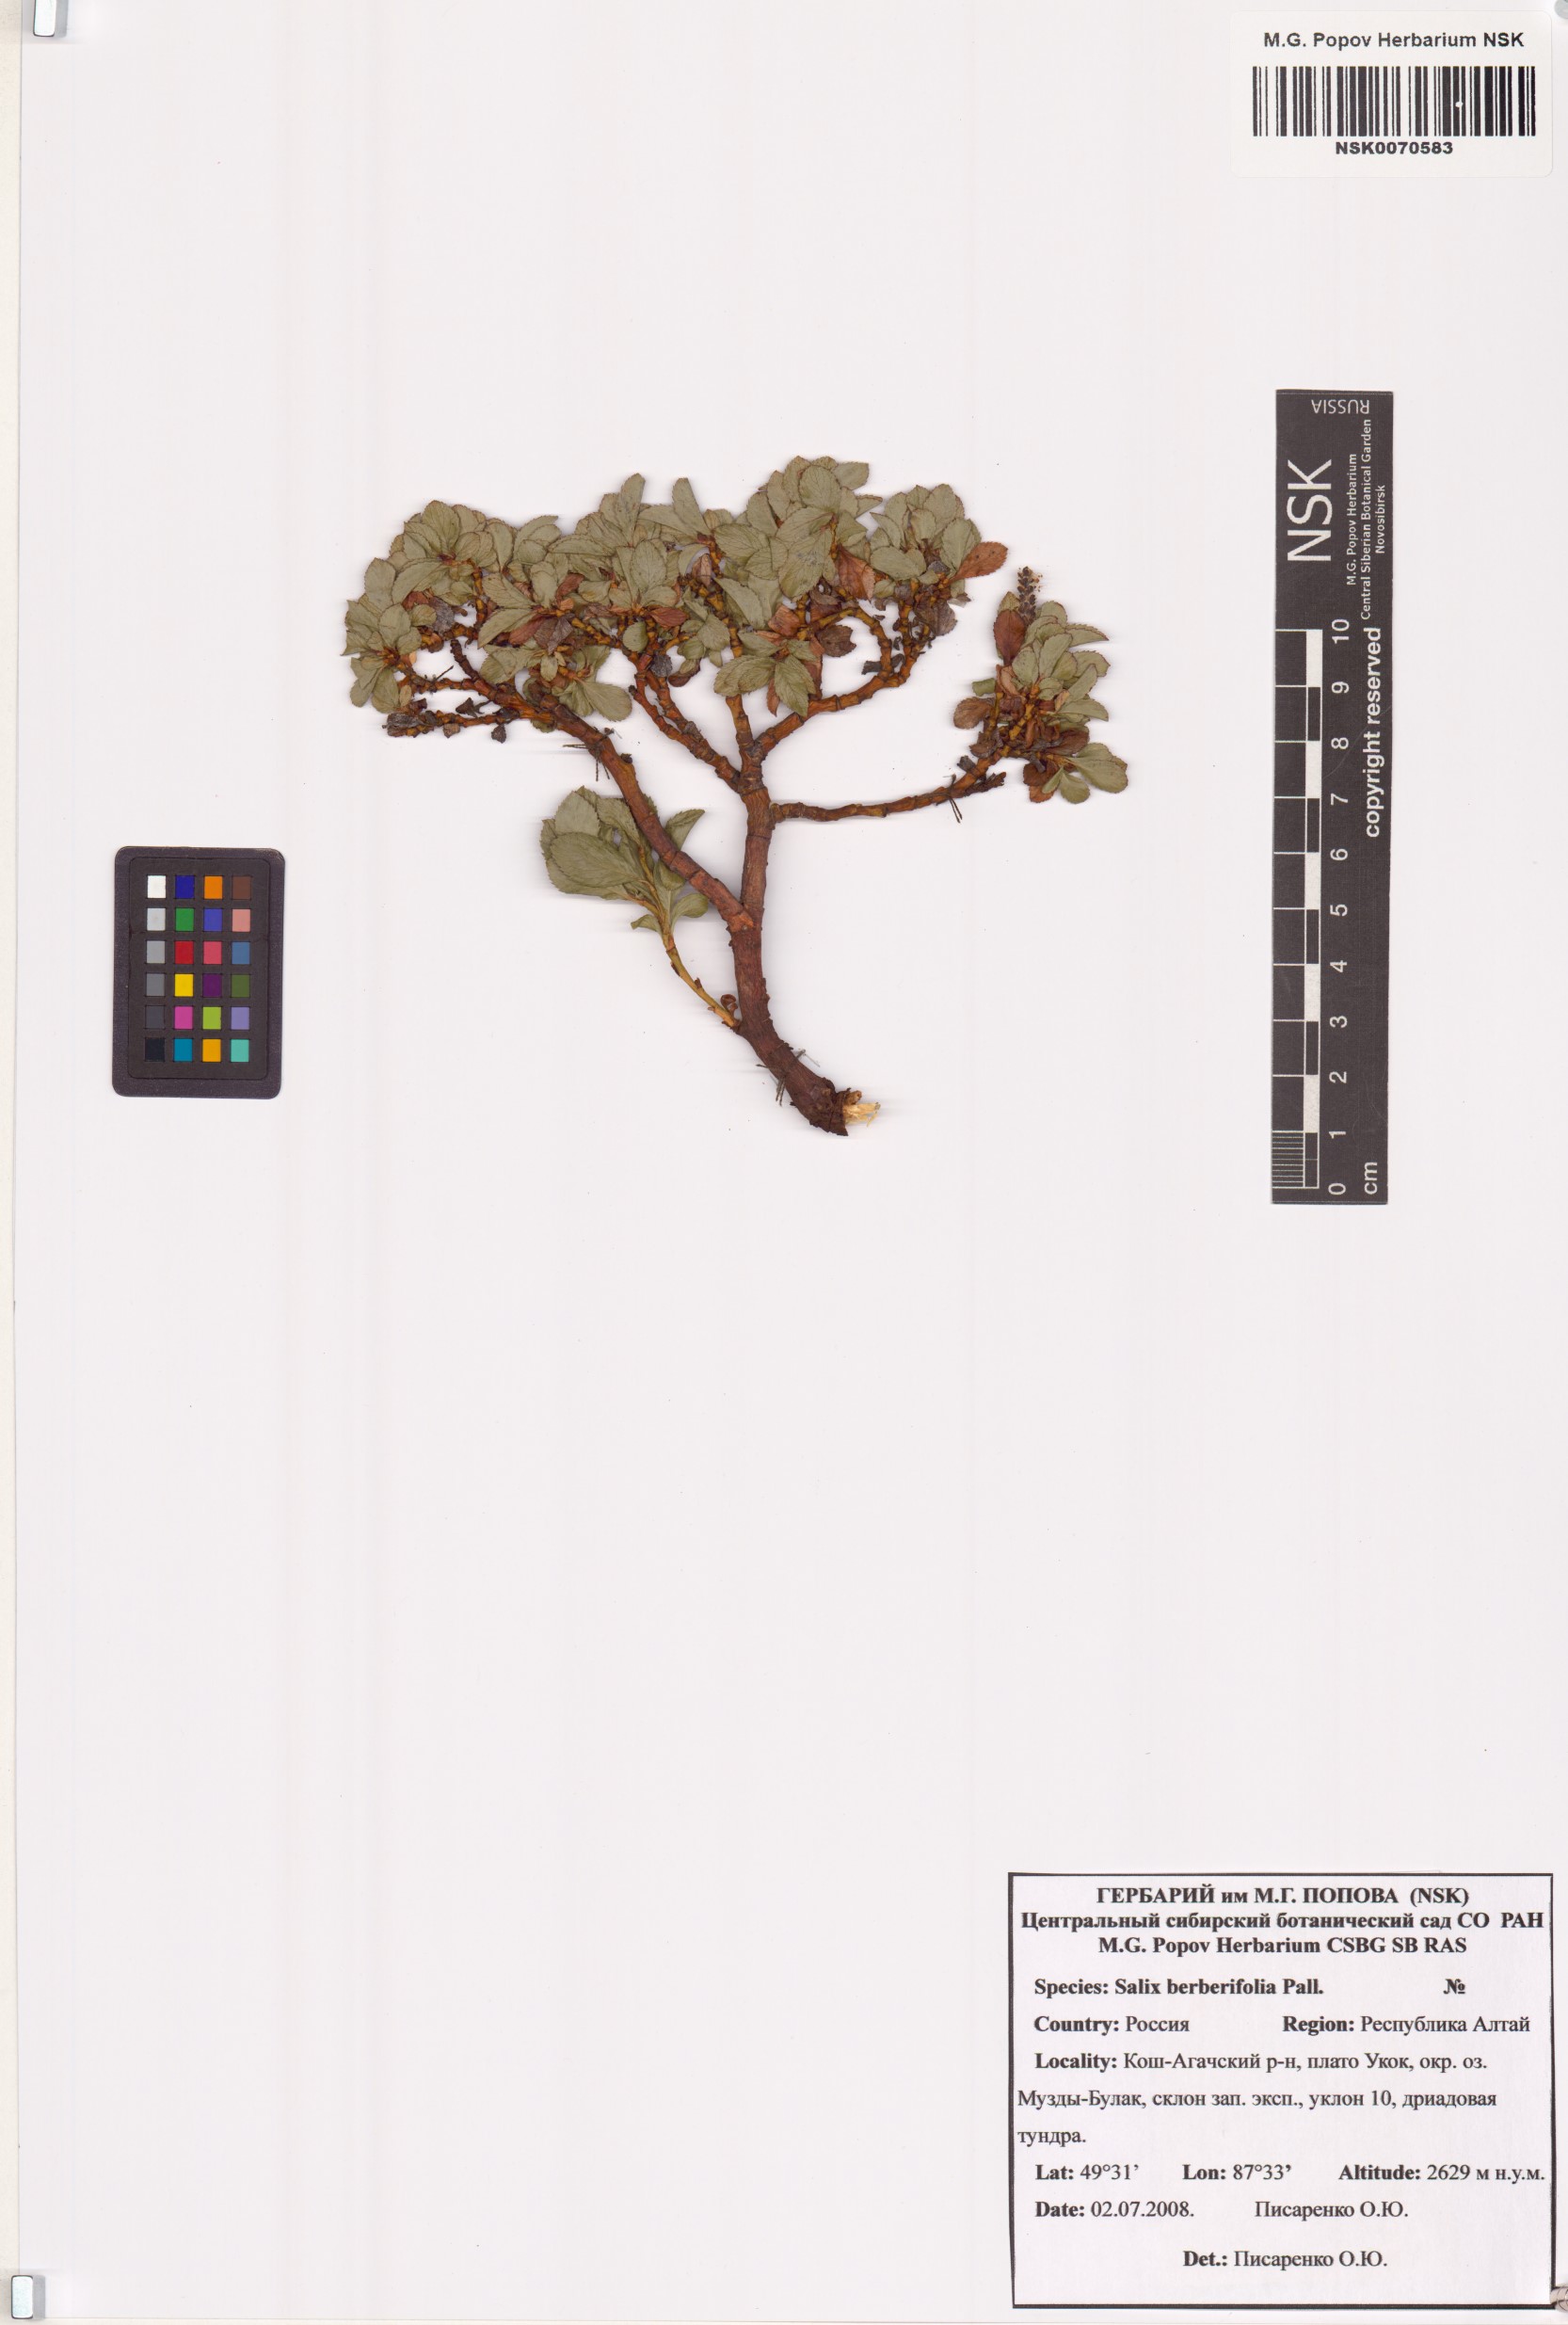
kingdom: Plantae
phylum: Tracheophyta
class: Magnoliopsida
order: Malpighiales
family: Salicaceae
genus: Salix
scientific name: Salix berberifolia
